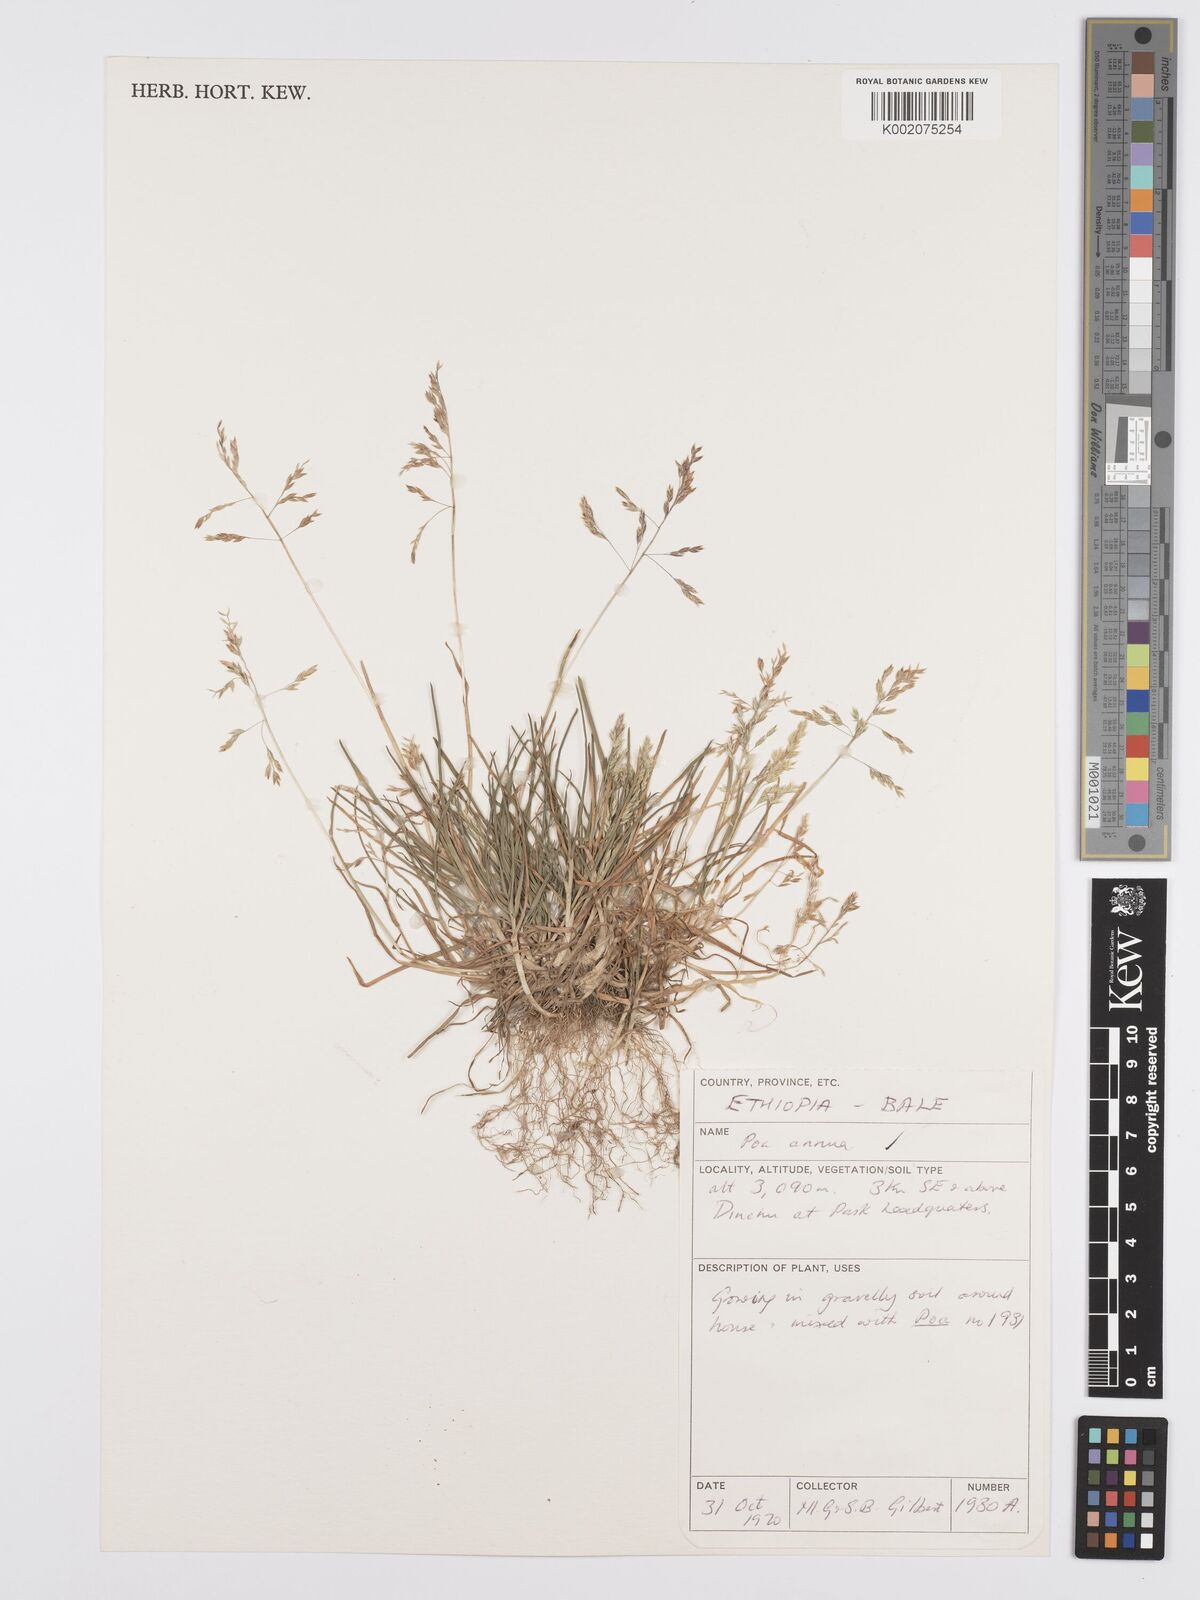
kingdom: Plantae
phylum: Tracheophyta
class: Liliopsida
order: Poales
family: Poaceae
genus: Poa
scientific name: Poa annua
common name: Annual bluegrass
